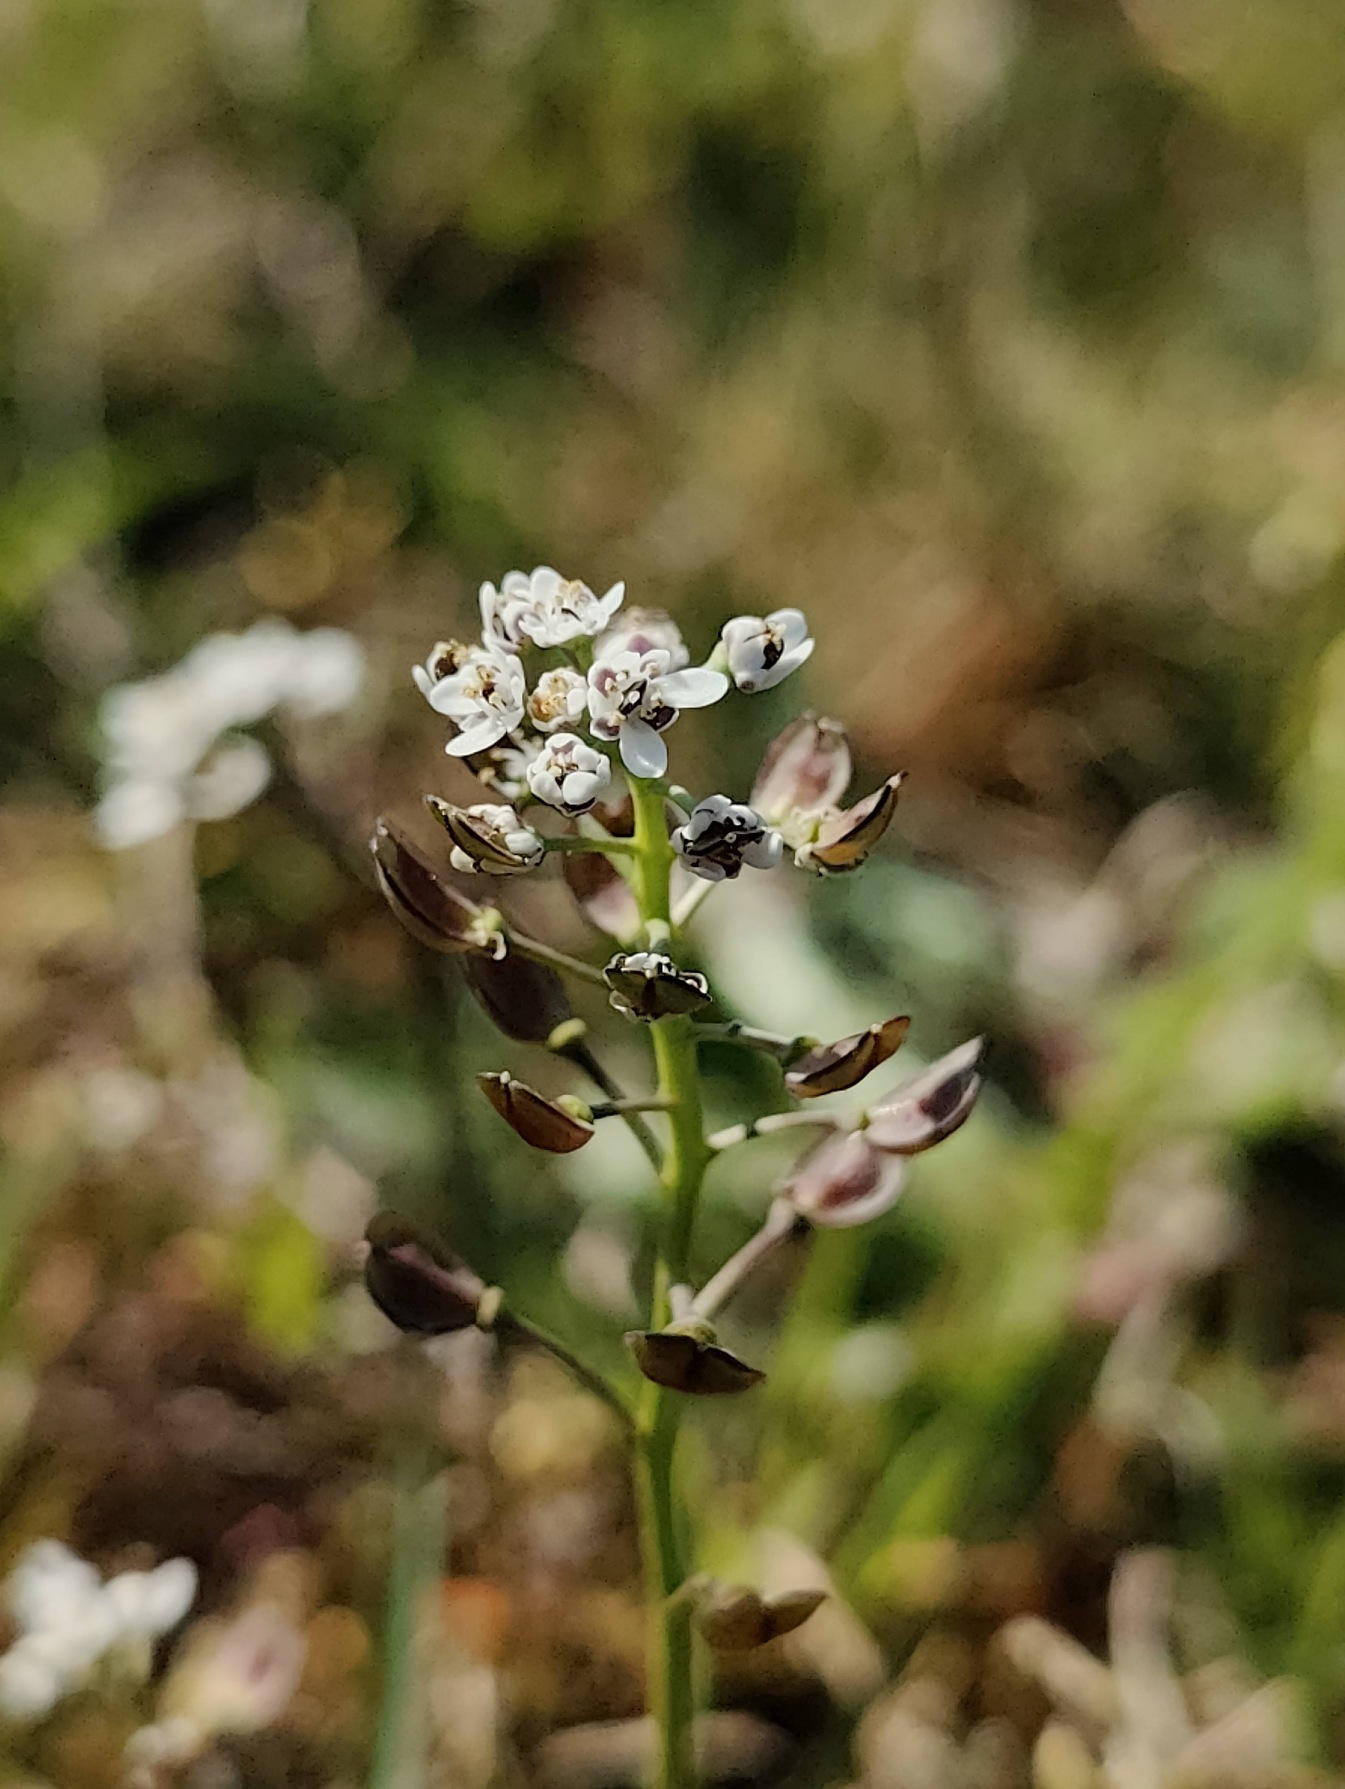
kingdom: Plantae
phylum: Tracheophyta
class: Magnoliopsida
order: Brassicales
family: Brassicaceae
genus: Teesdalia
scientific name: Teesdalia nudicaulis
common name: Flipkrave
